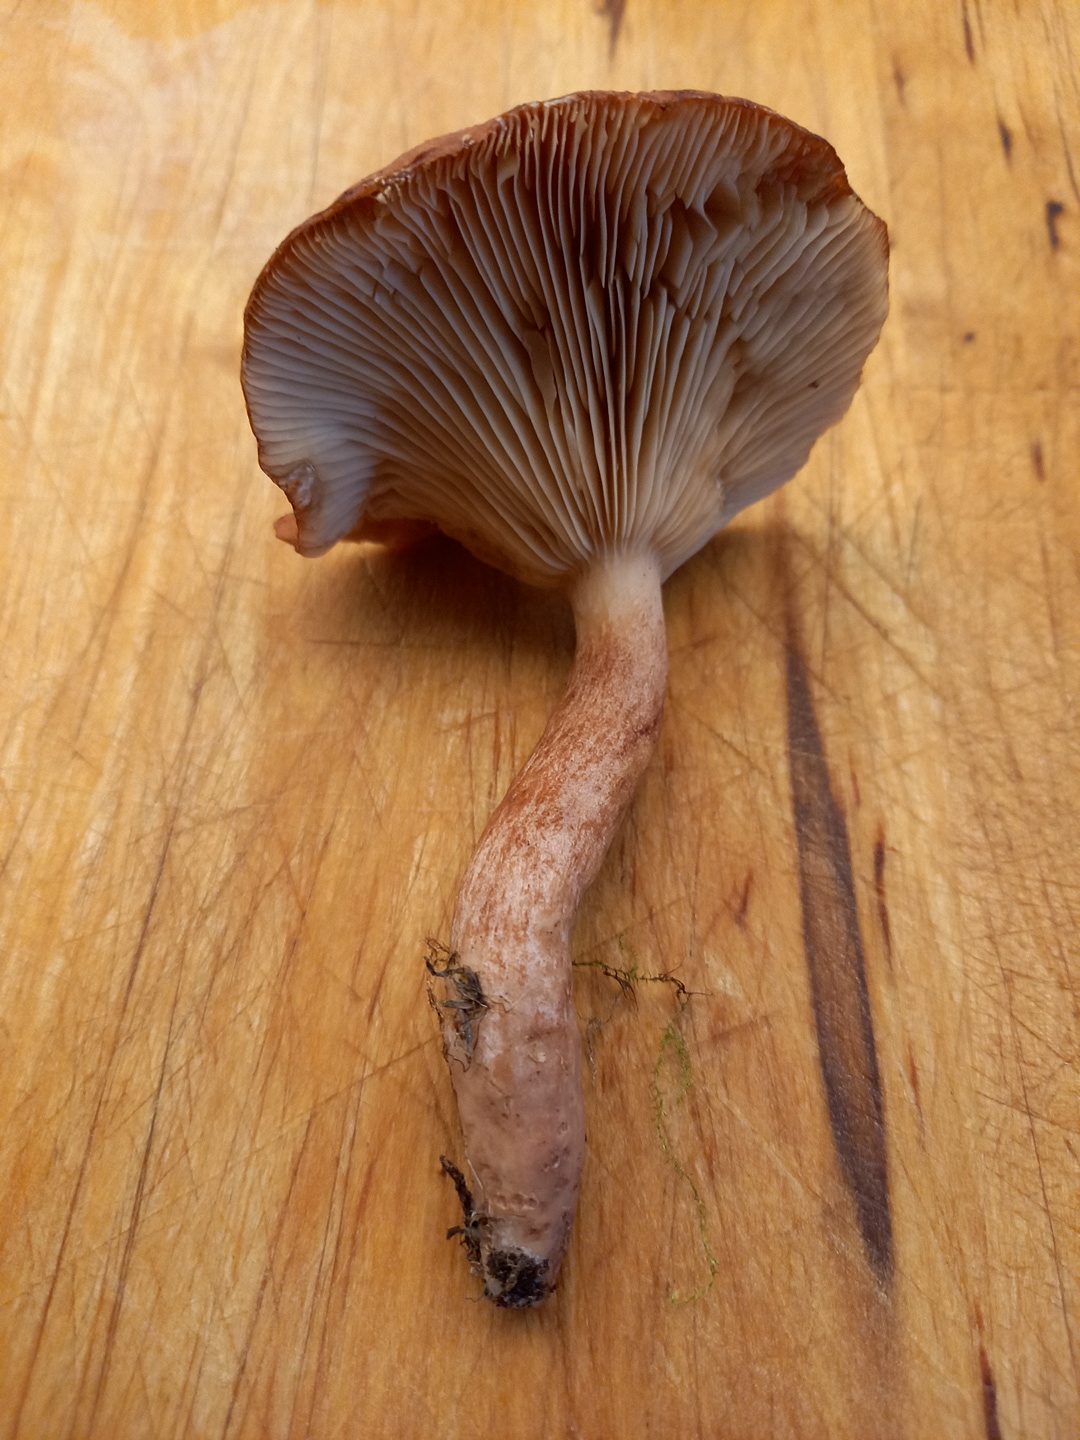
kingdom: Fungi
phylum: Basidiomycota
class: Agaricomycetes
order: Russulales
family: Russulaceae
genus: Lactarius
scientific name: Lactarius quietus
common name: ege-mælkehat
